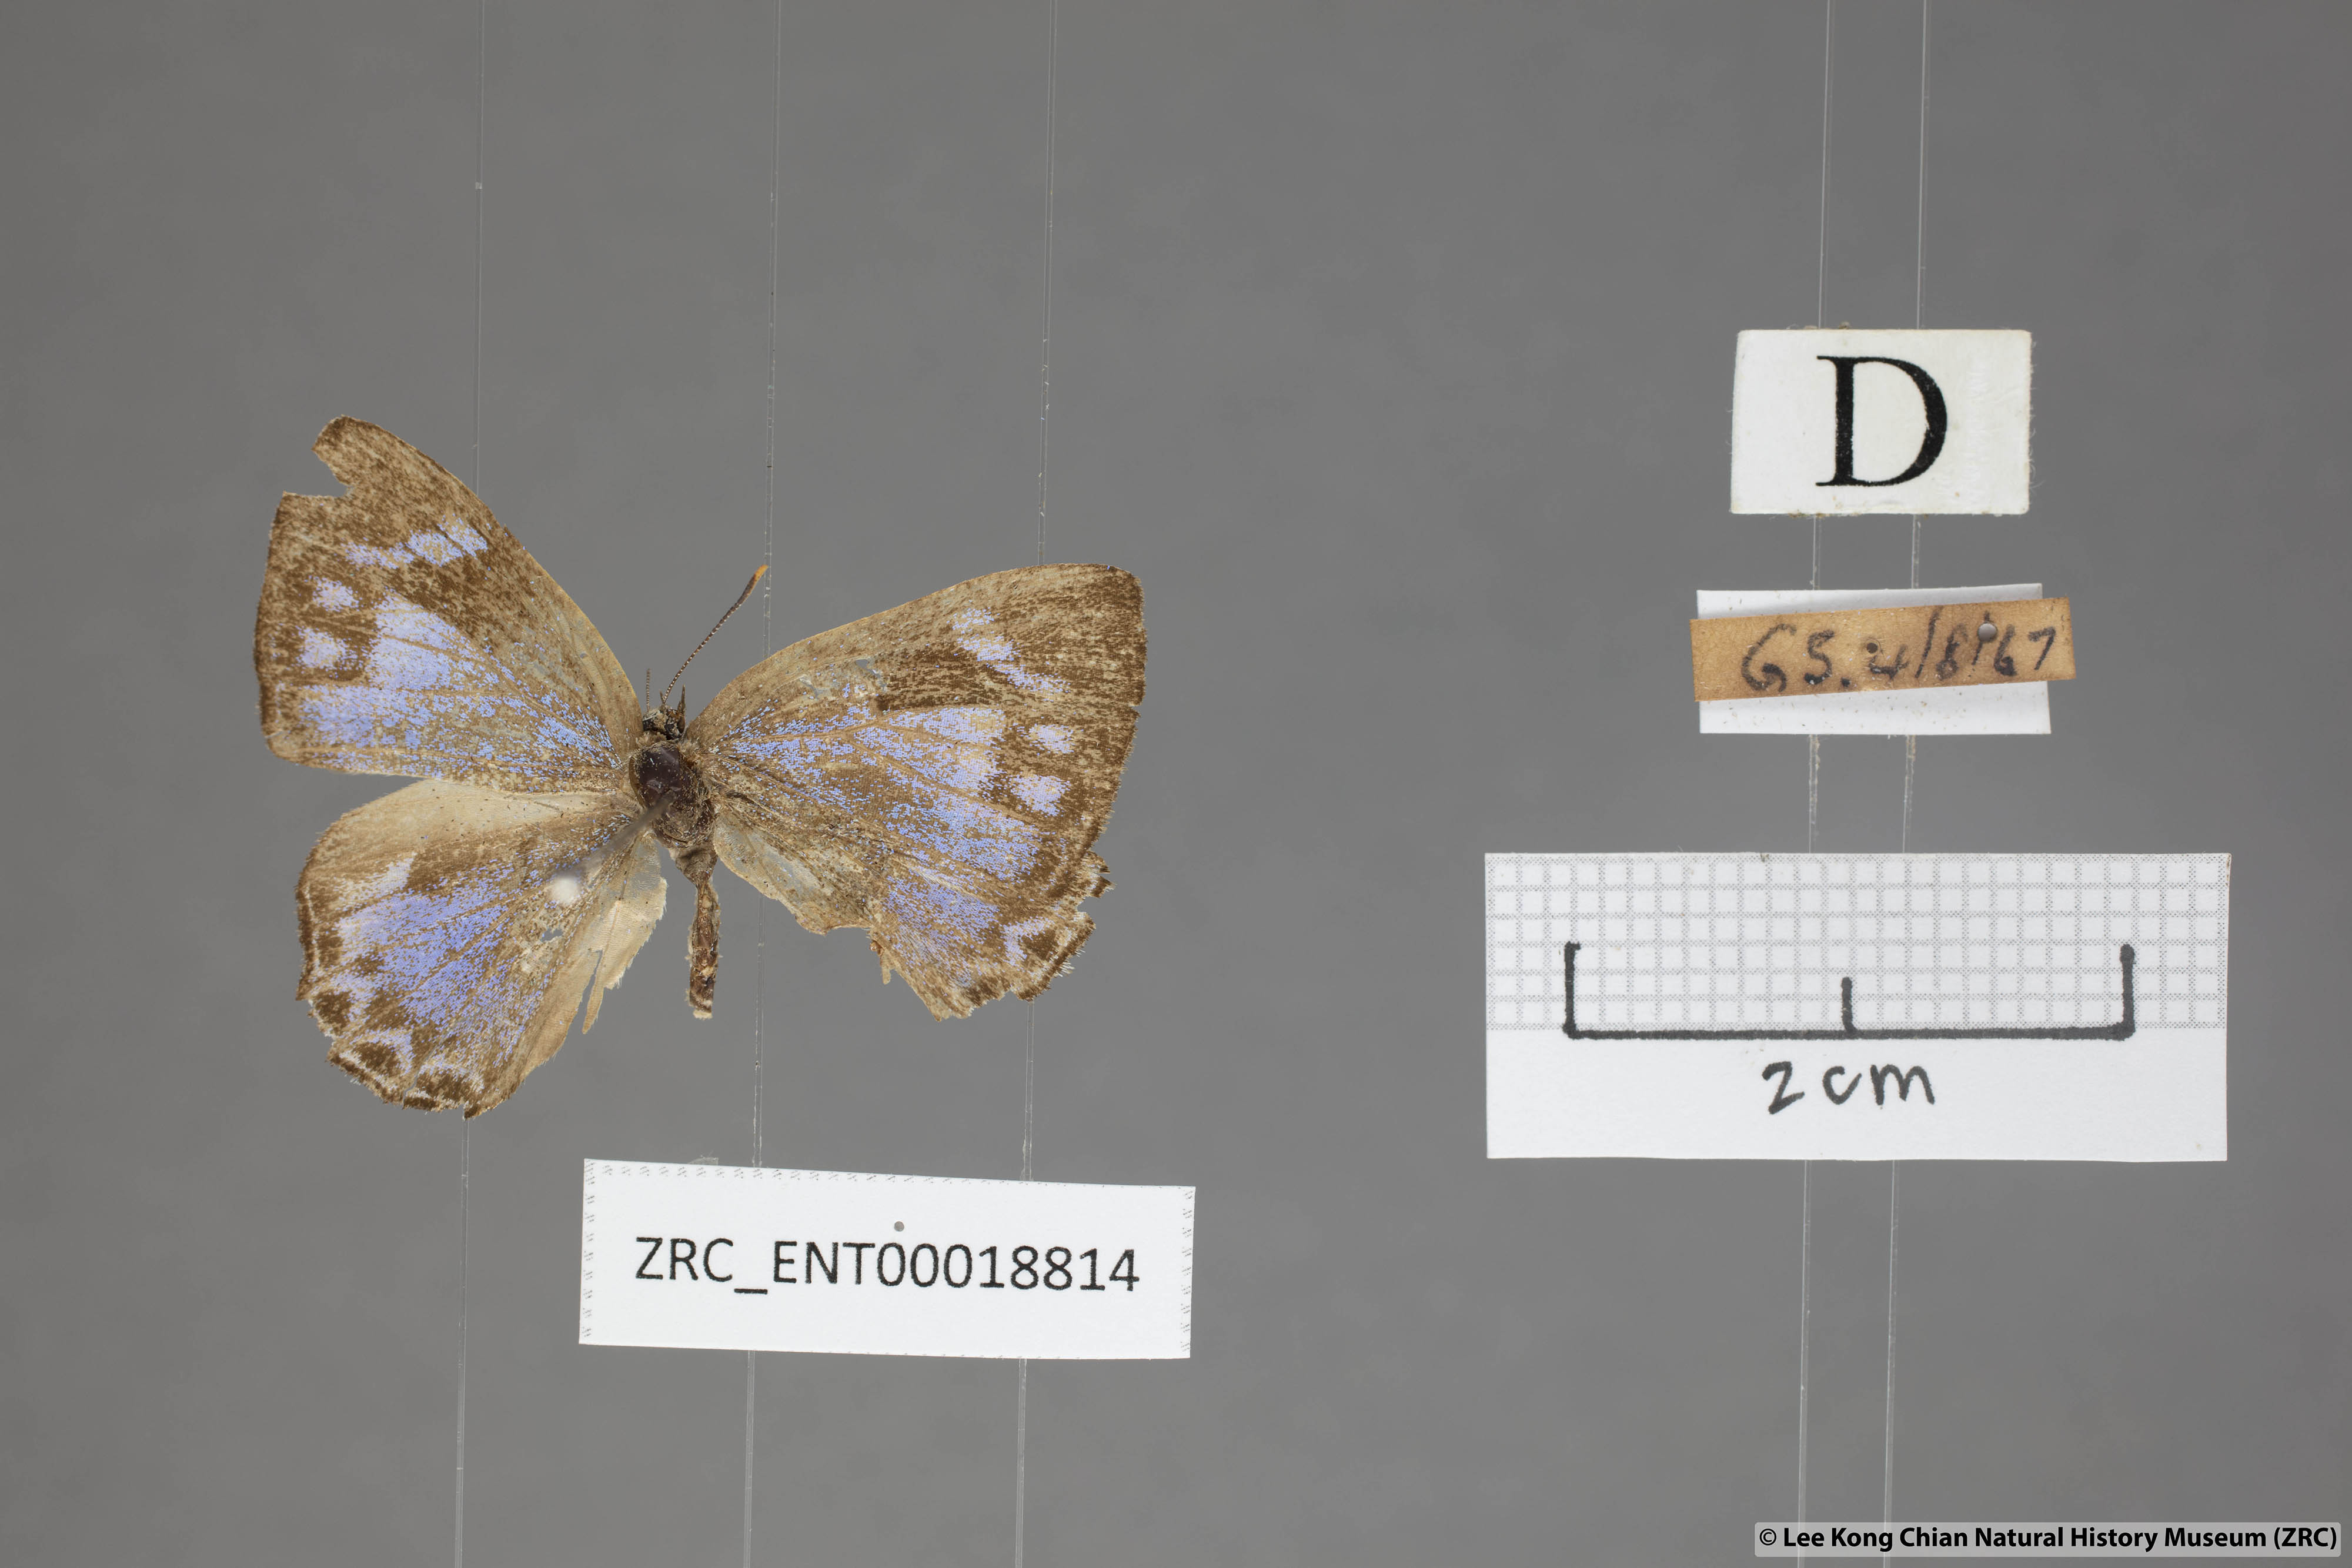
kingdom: Animalia
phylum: Arthropoda
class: Insecta
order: Lepidoptera
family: Lycaenidae
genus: Poritia
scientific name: Poritia pleurata
